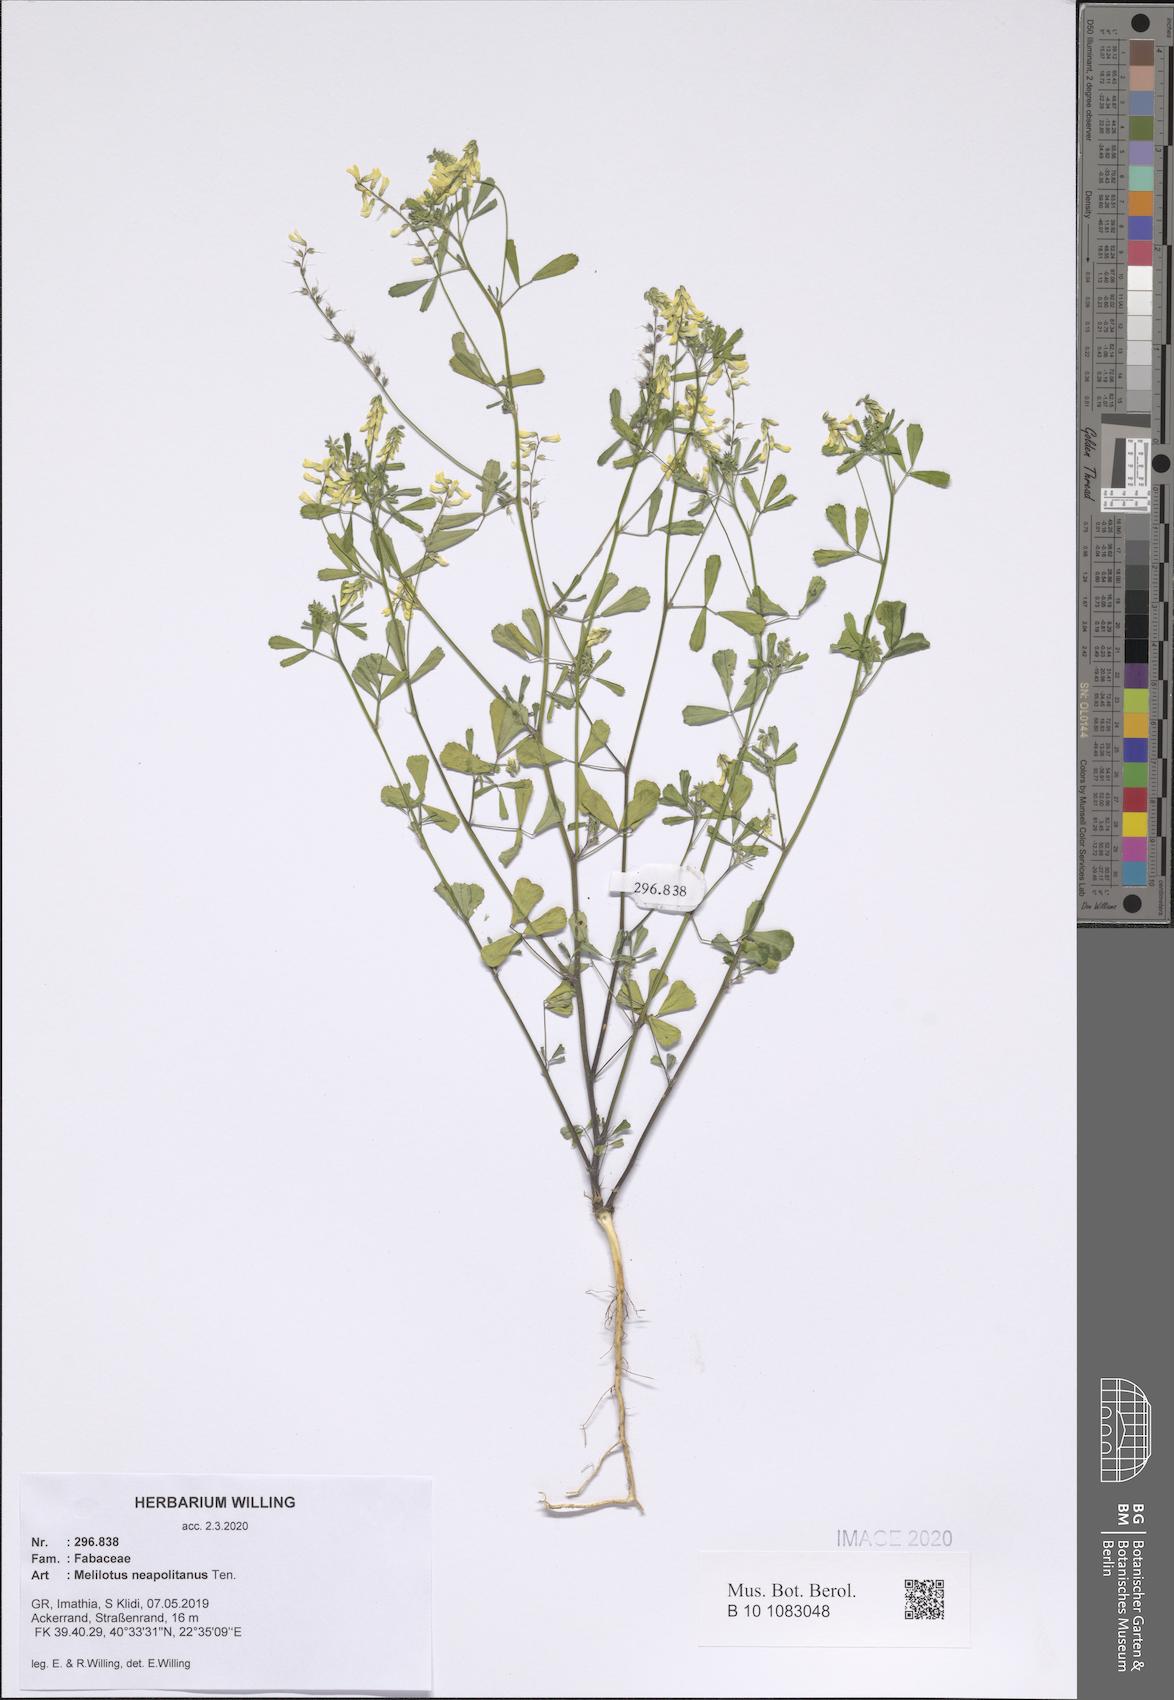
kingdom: Plantae
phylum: Tracheophyta
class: Magnoliopsida
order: Fabales
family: Fabaceae
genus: Melilotus
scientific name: Melilotus neapolitanus
